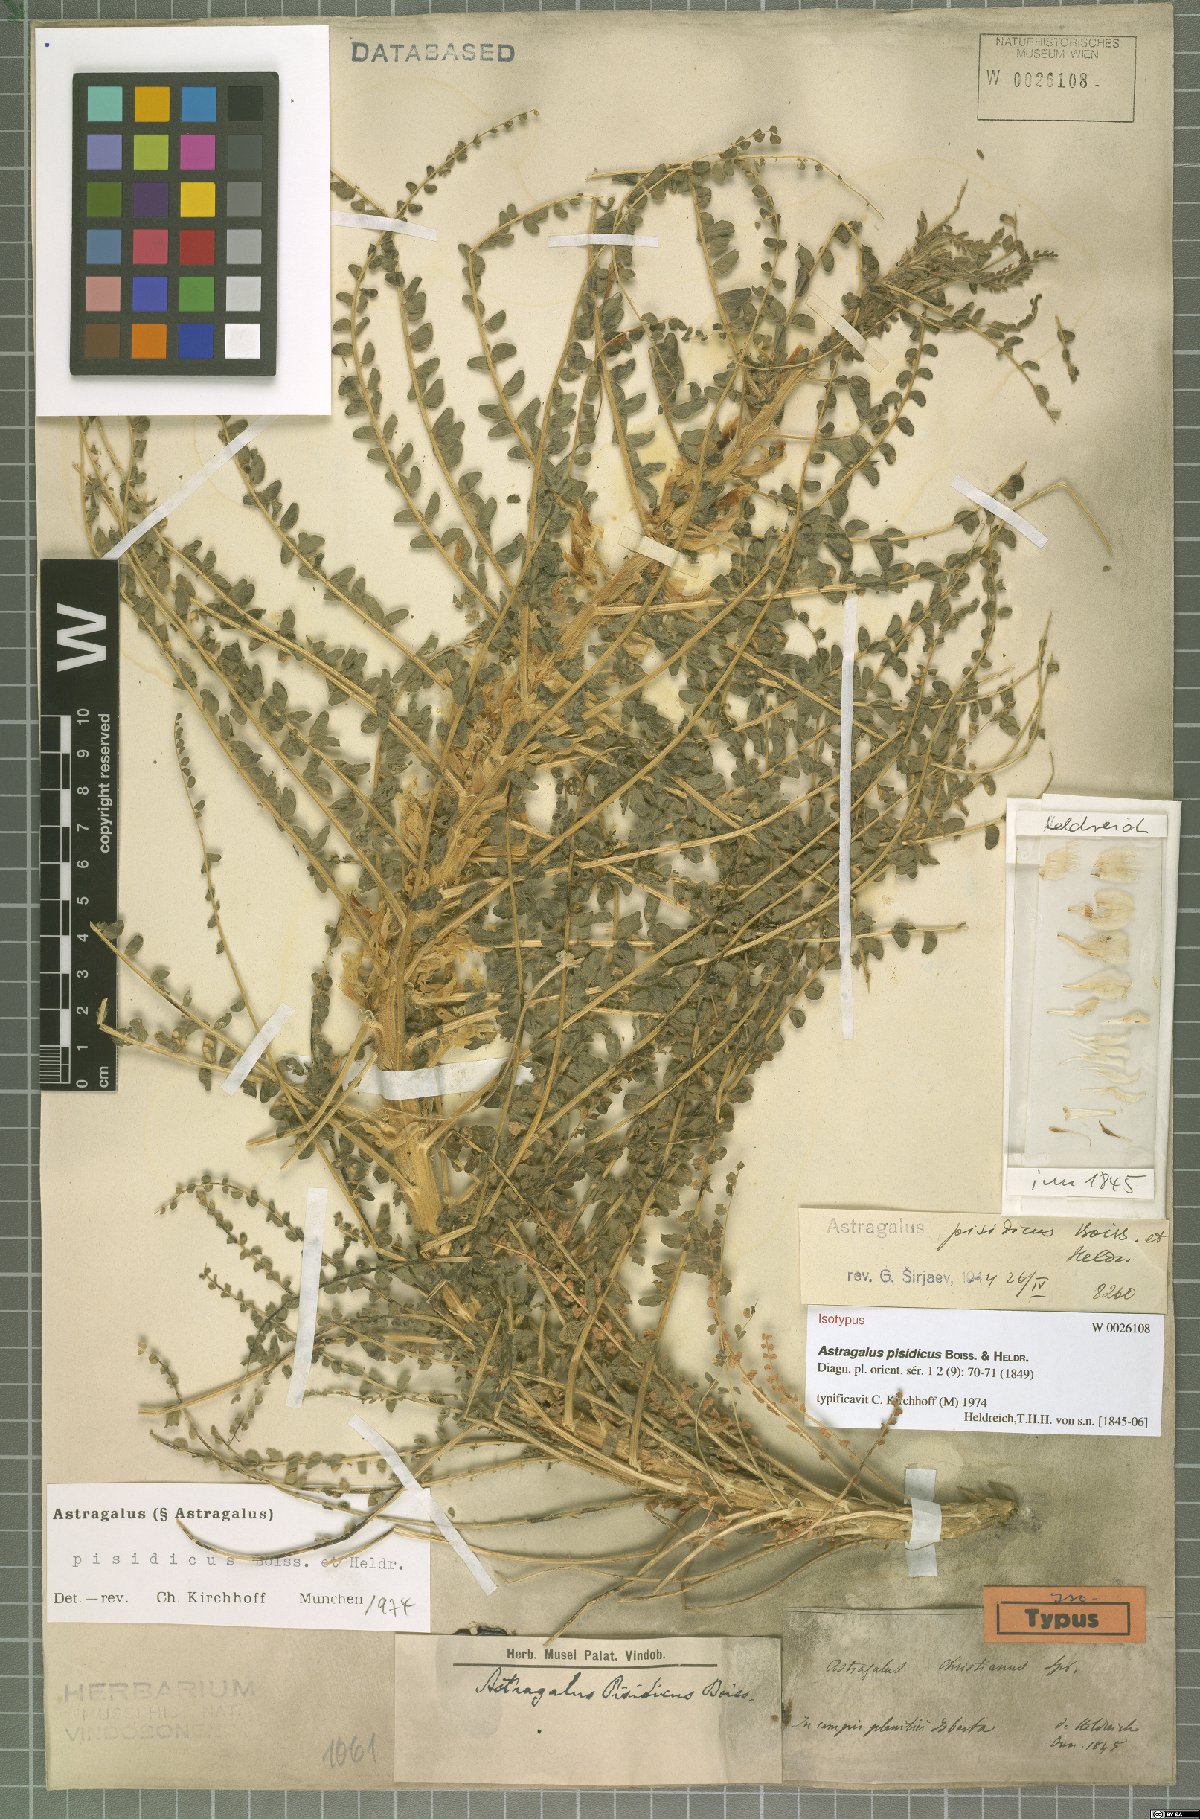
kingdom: Plantae
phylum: Tracheophyta
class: Magnoliopsida
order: Fabales
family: Fabaceae
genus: Astragalus
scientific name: Astragalus pisidicus
